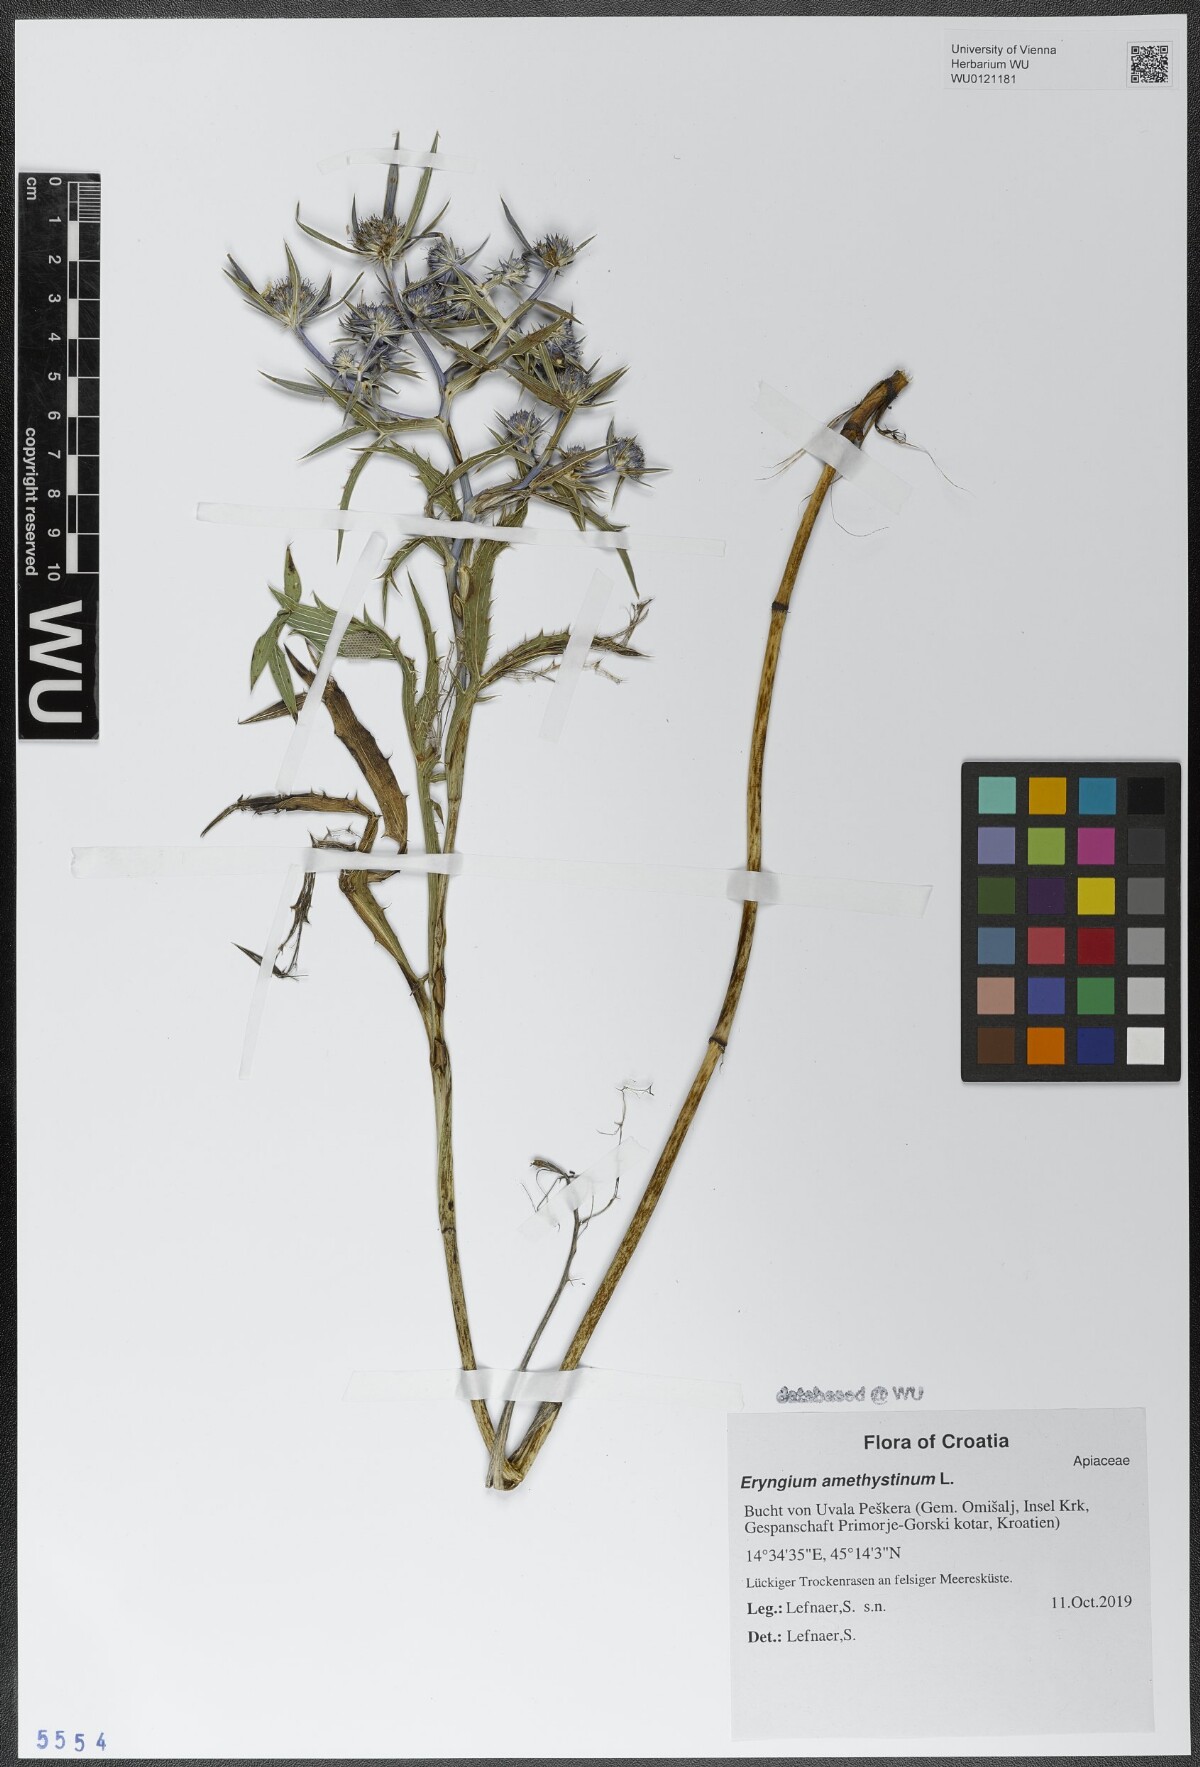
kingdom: Plantae
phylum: Tracheophyta
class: Magnoliopsida
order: Apiales
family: Apiaceae
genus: Eryngium
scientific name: Eryngium amethystinum
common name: Amethyst eryngo
